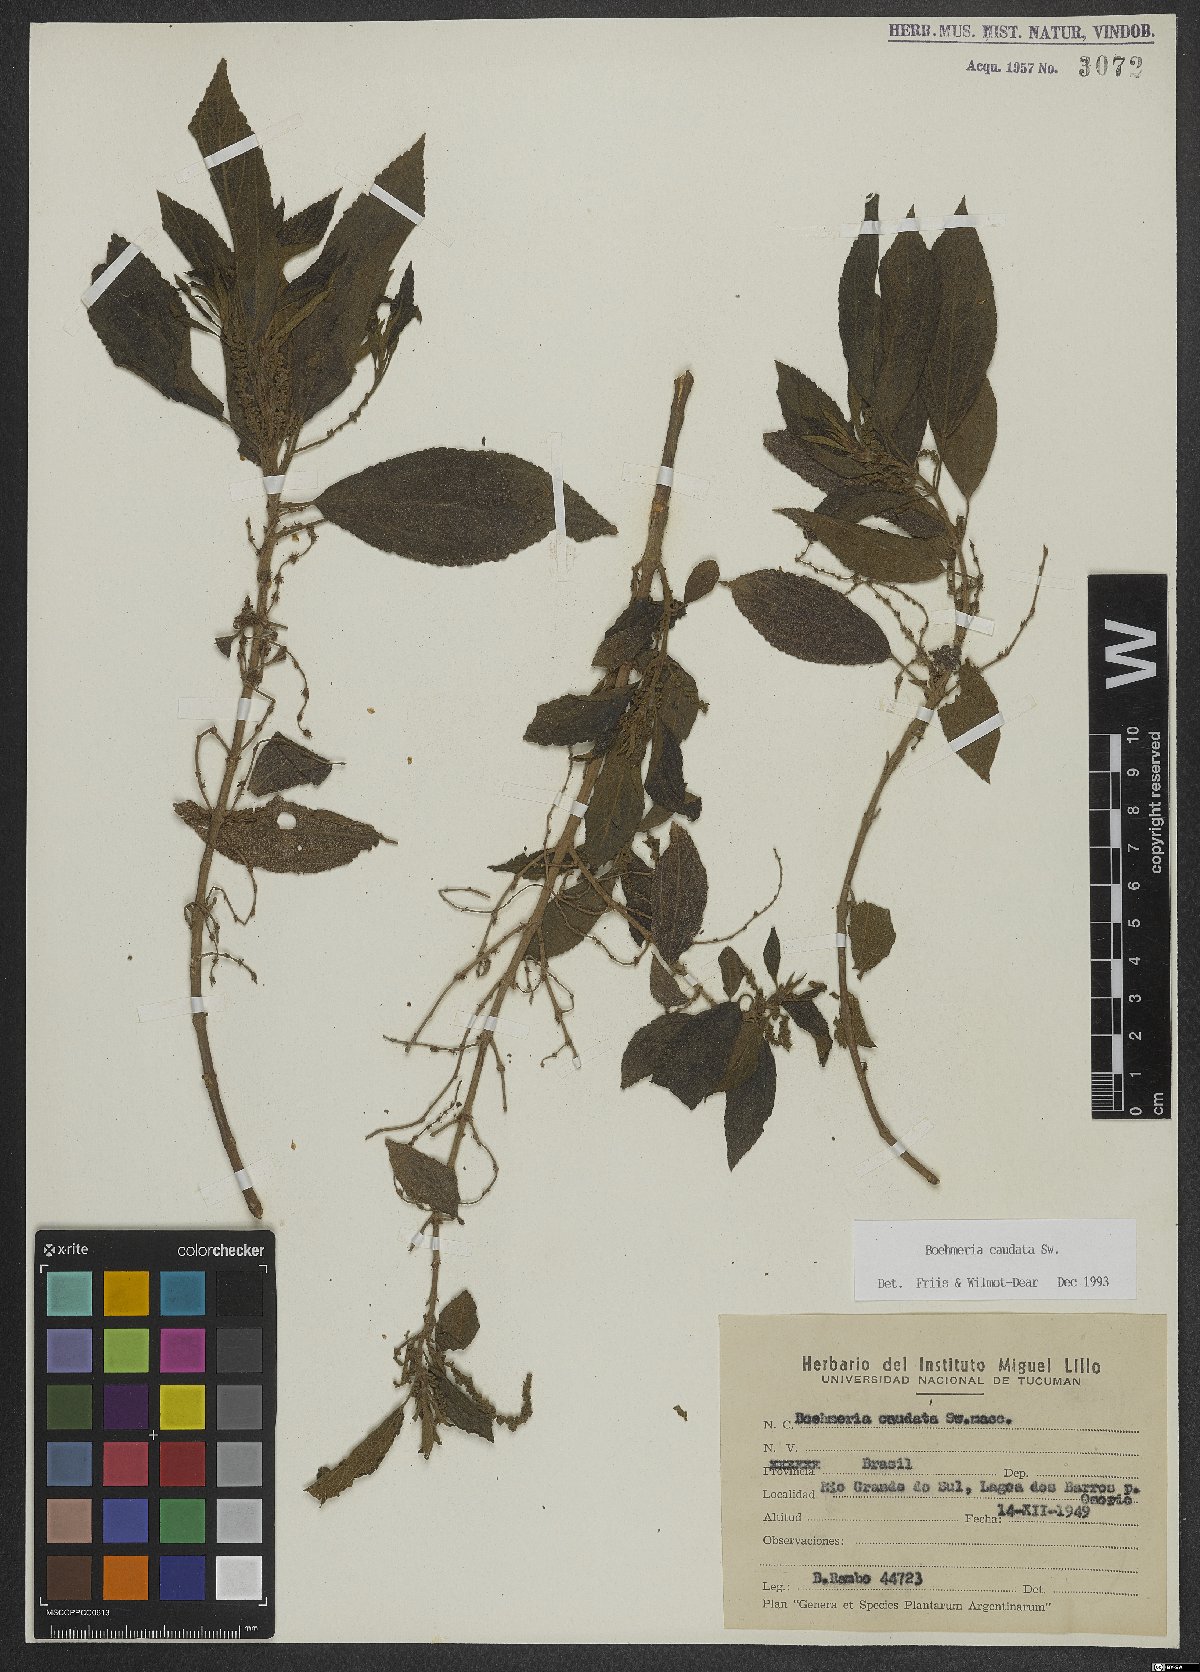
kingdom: Plantae
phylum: Tracheophyta
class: Magnoliopsida
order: Rosales
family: Urticaceae
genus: Boehmeria
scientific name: Boehmeria caudata
